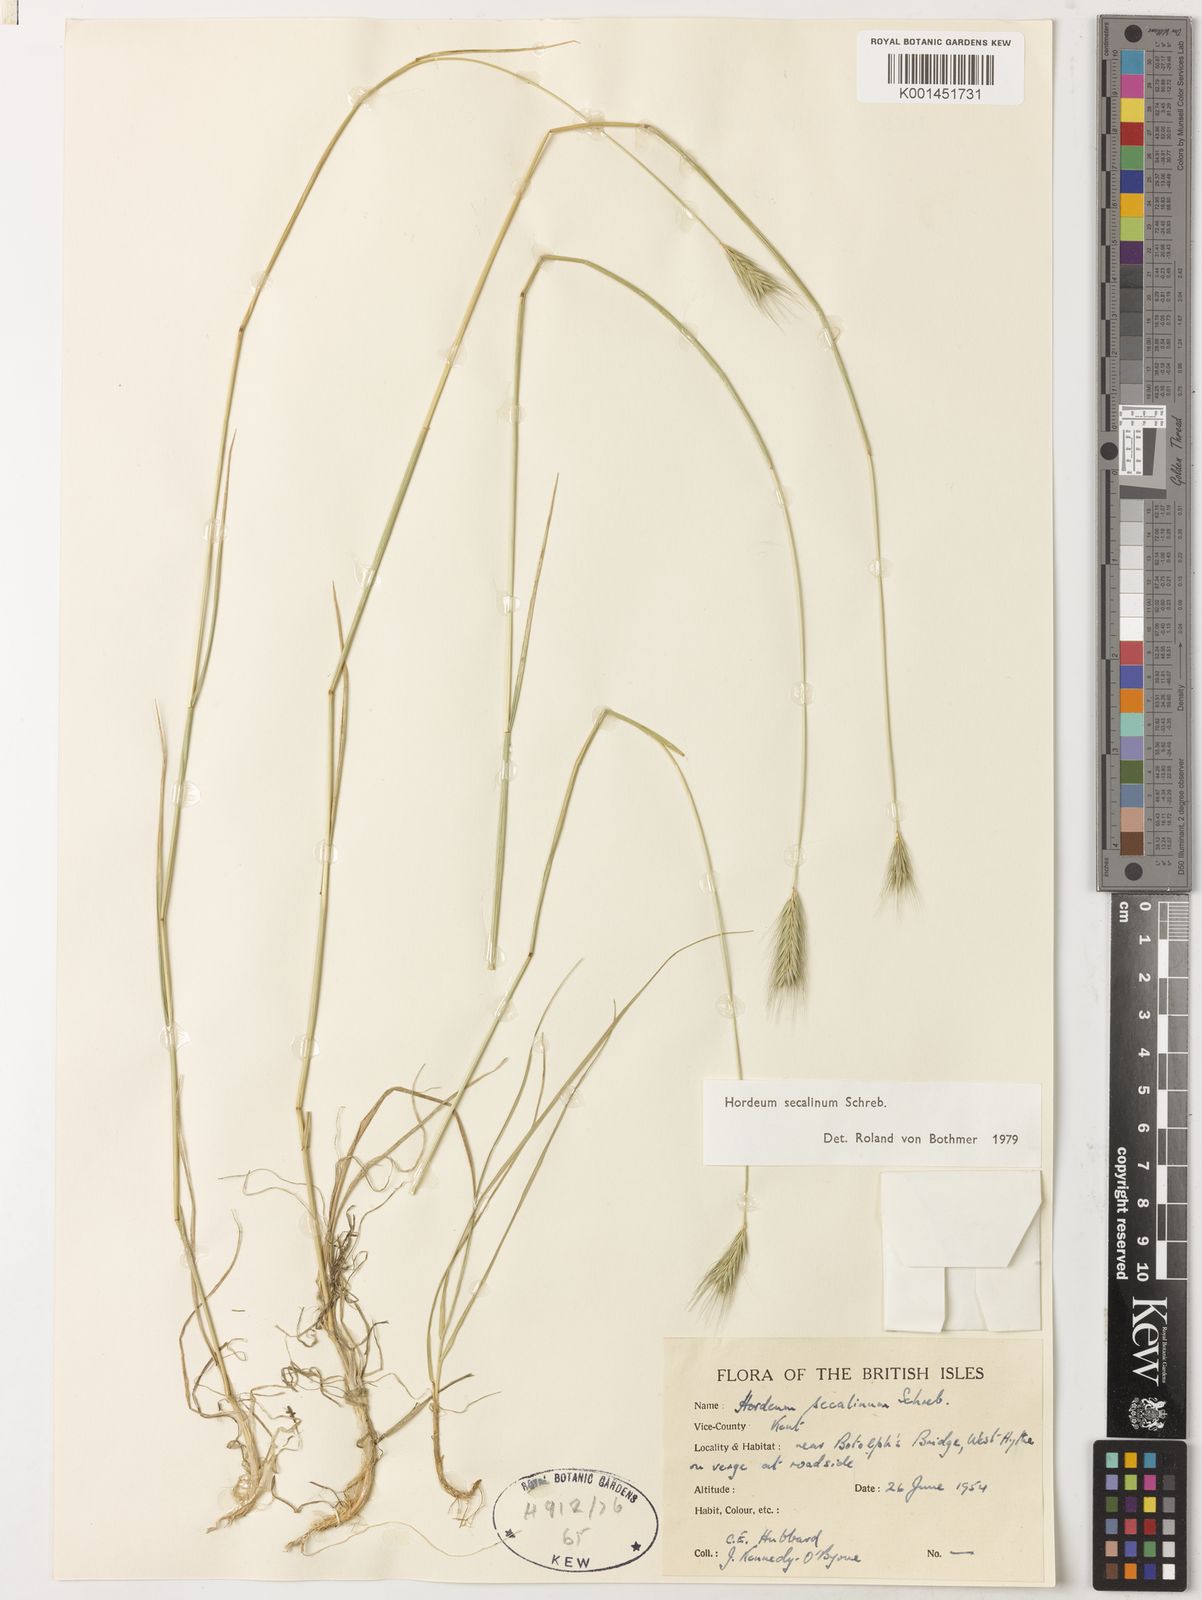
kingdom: Plantae
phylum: Tracheophyta
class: Liliopsida
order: Poales
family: Poaceae
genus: Hordeum
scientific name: Hordeum secalinum
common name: Meadow barley
